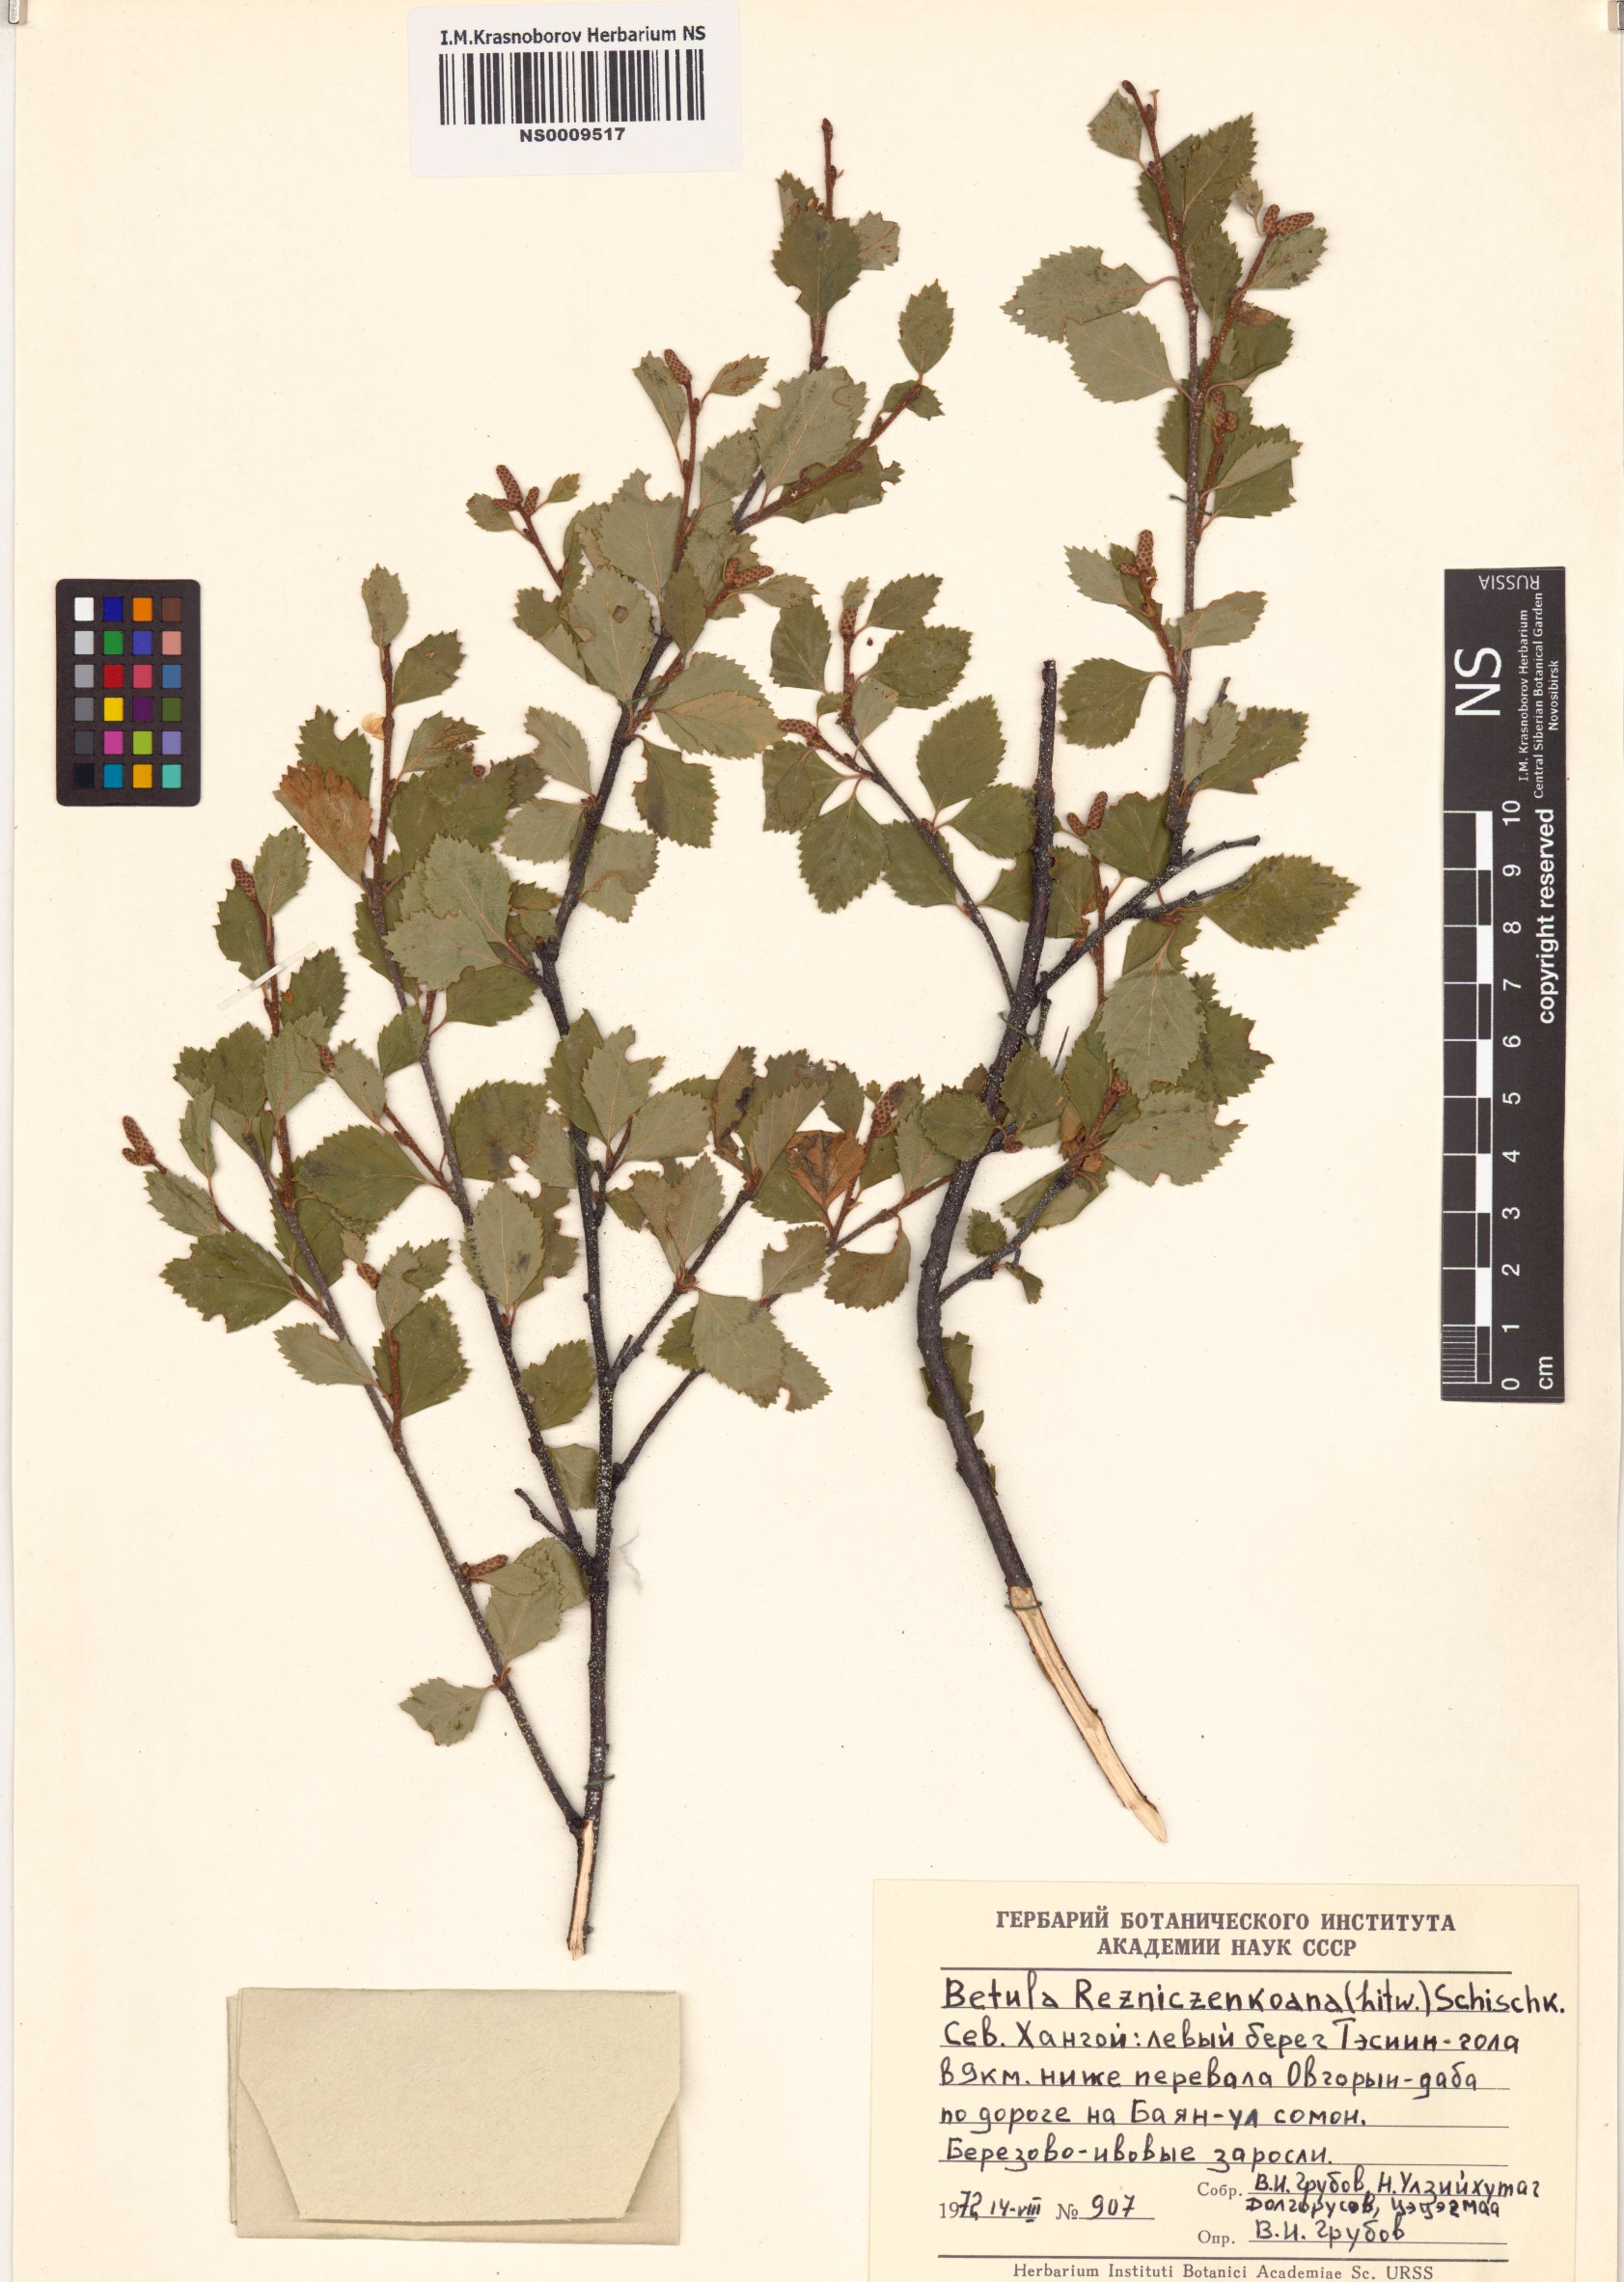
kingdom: Plantae
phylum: Tracheophyta
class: Magnoliopsida
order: Fagales
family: Betulaceae
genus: Betula
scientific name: Betula microphylla
